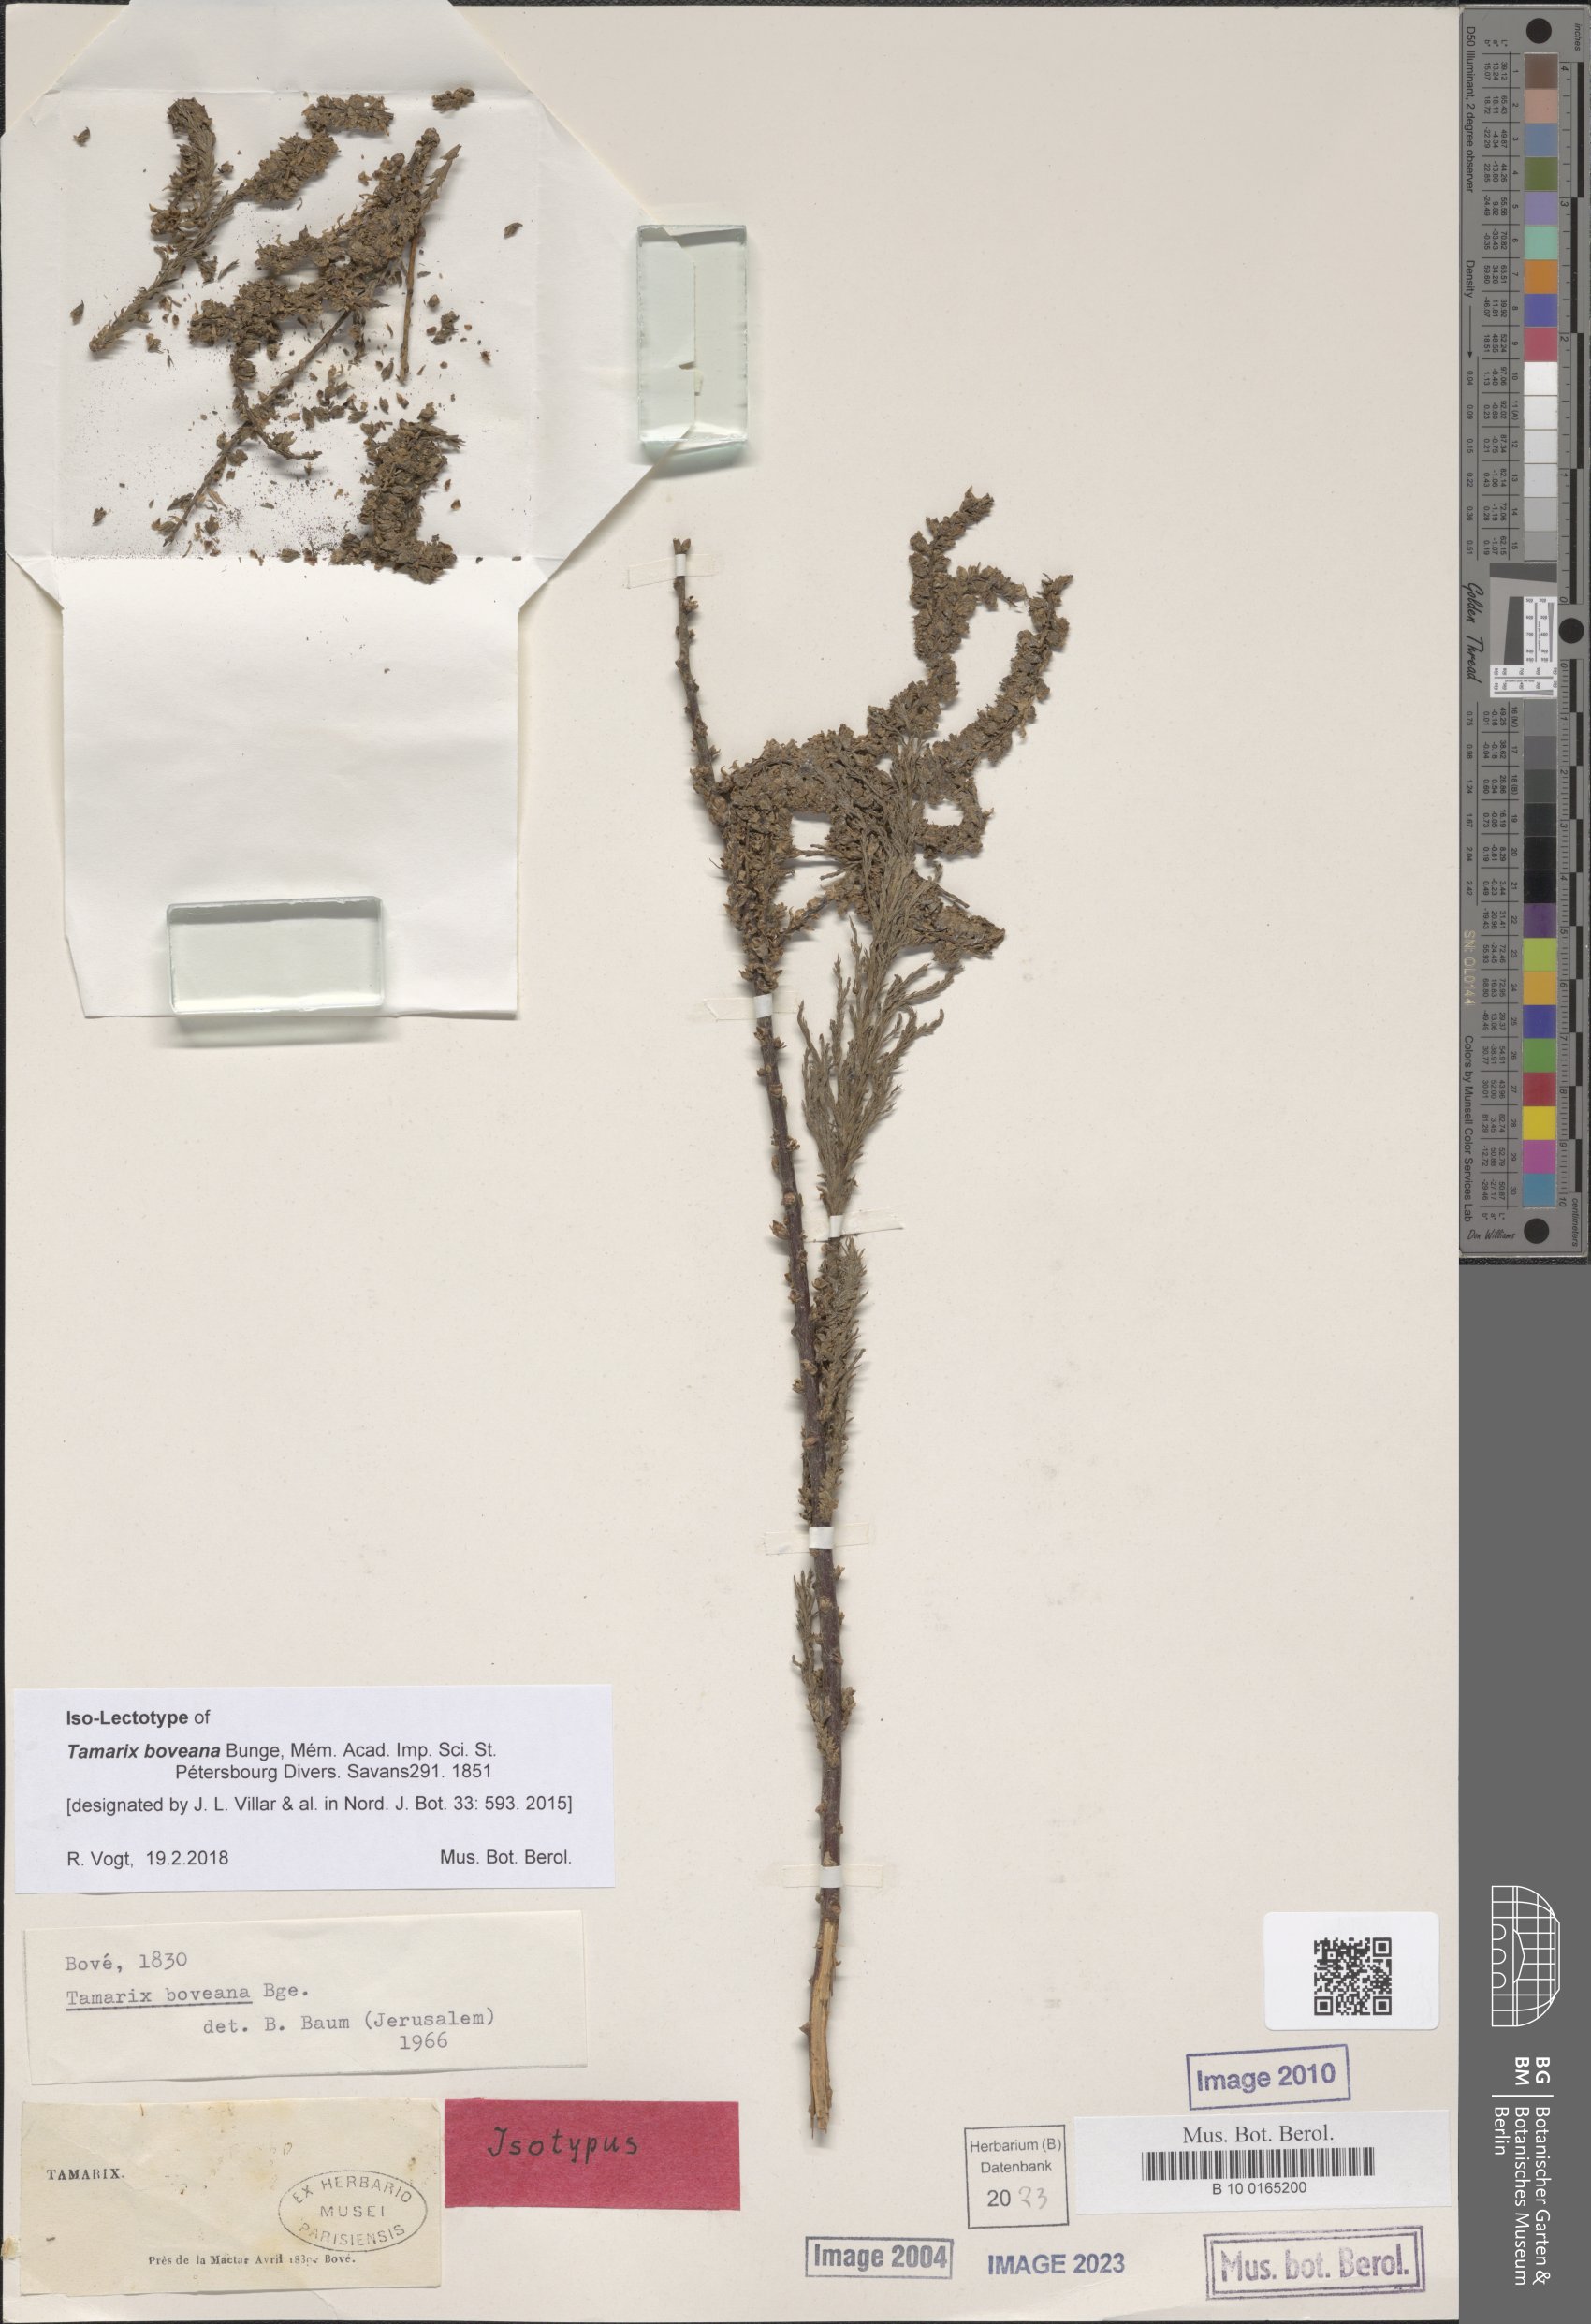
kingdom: Plantae
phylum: Tracheophyta
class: Magnoliopsida
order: Caryophyllales
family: Tamaricaceae
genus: Tamarix
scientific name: Tamarix boveana
